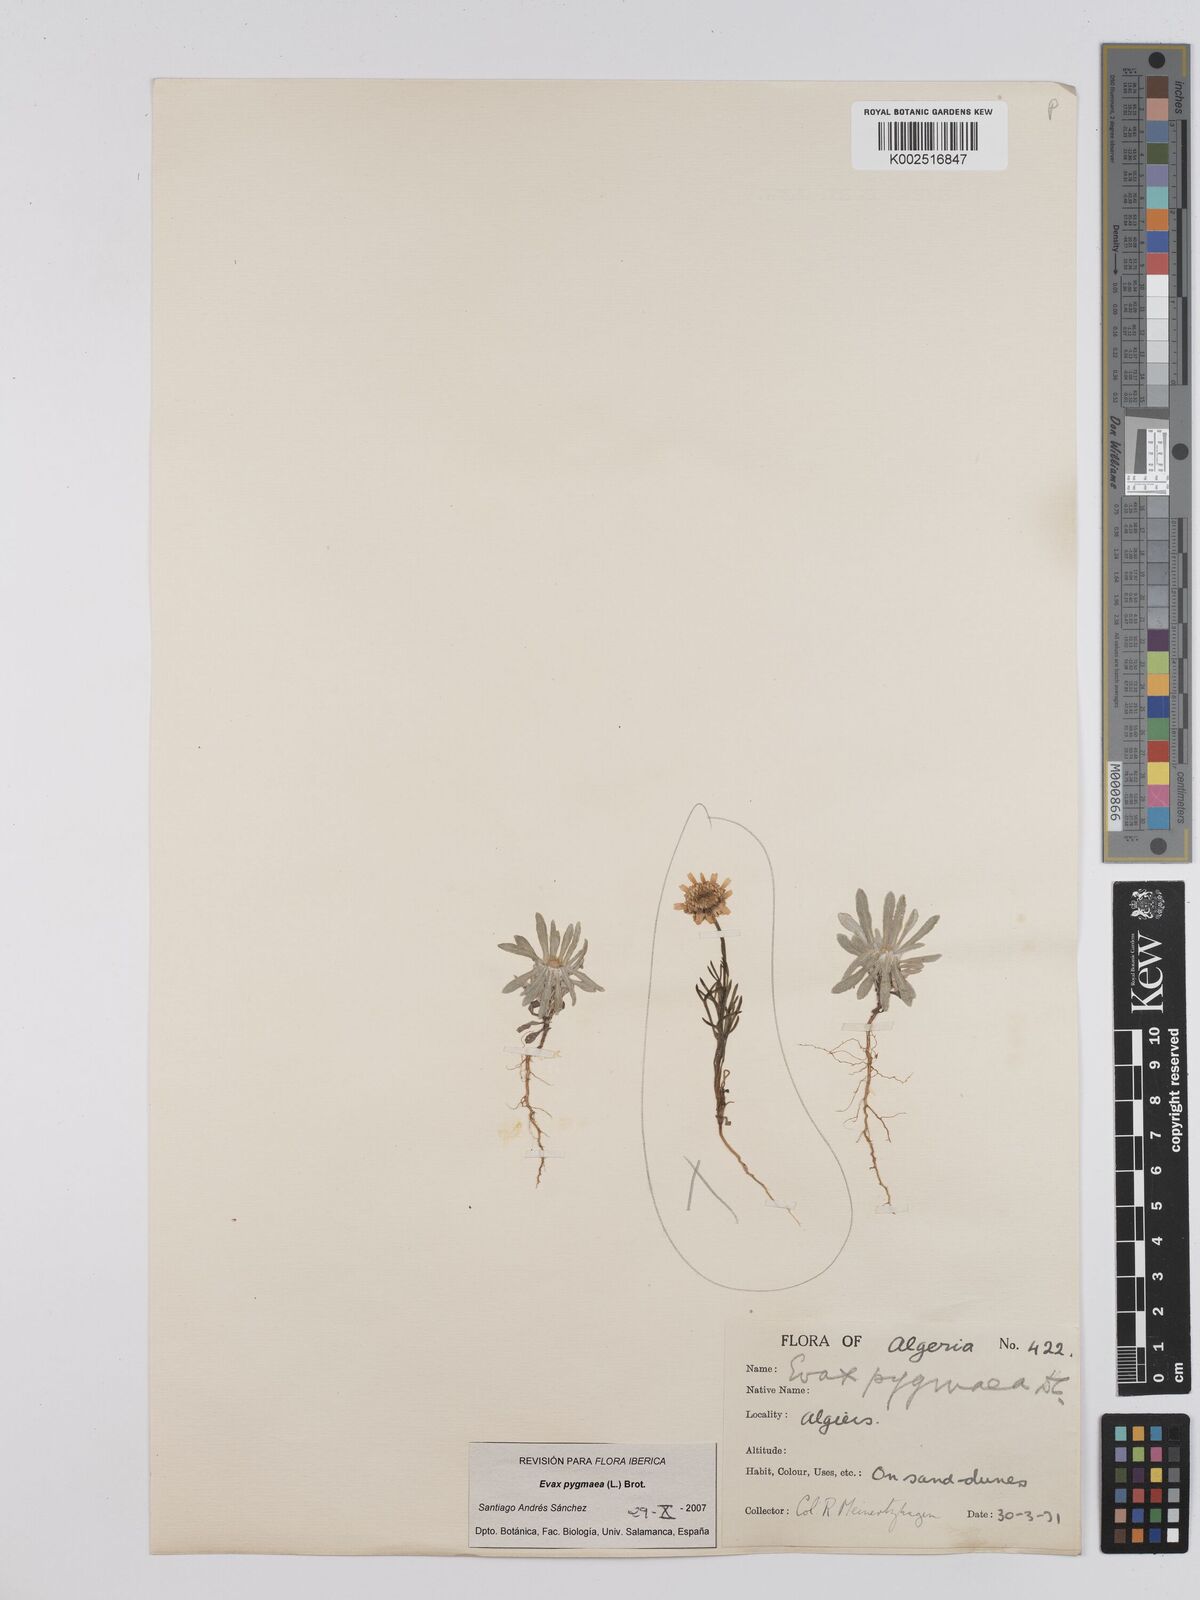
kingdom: Plantae
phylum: Tracheophyta
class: Magnoliopsida
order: Asterales
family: Asteraceae
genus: Filago
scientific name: Filago pygmaea
